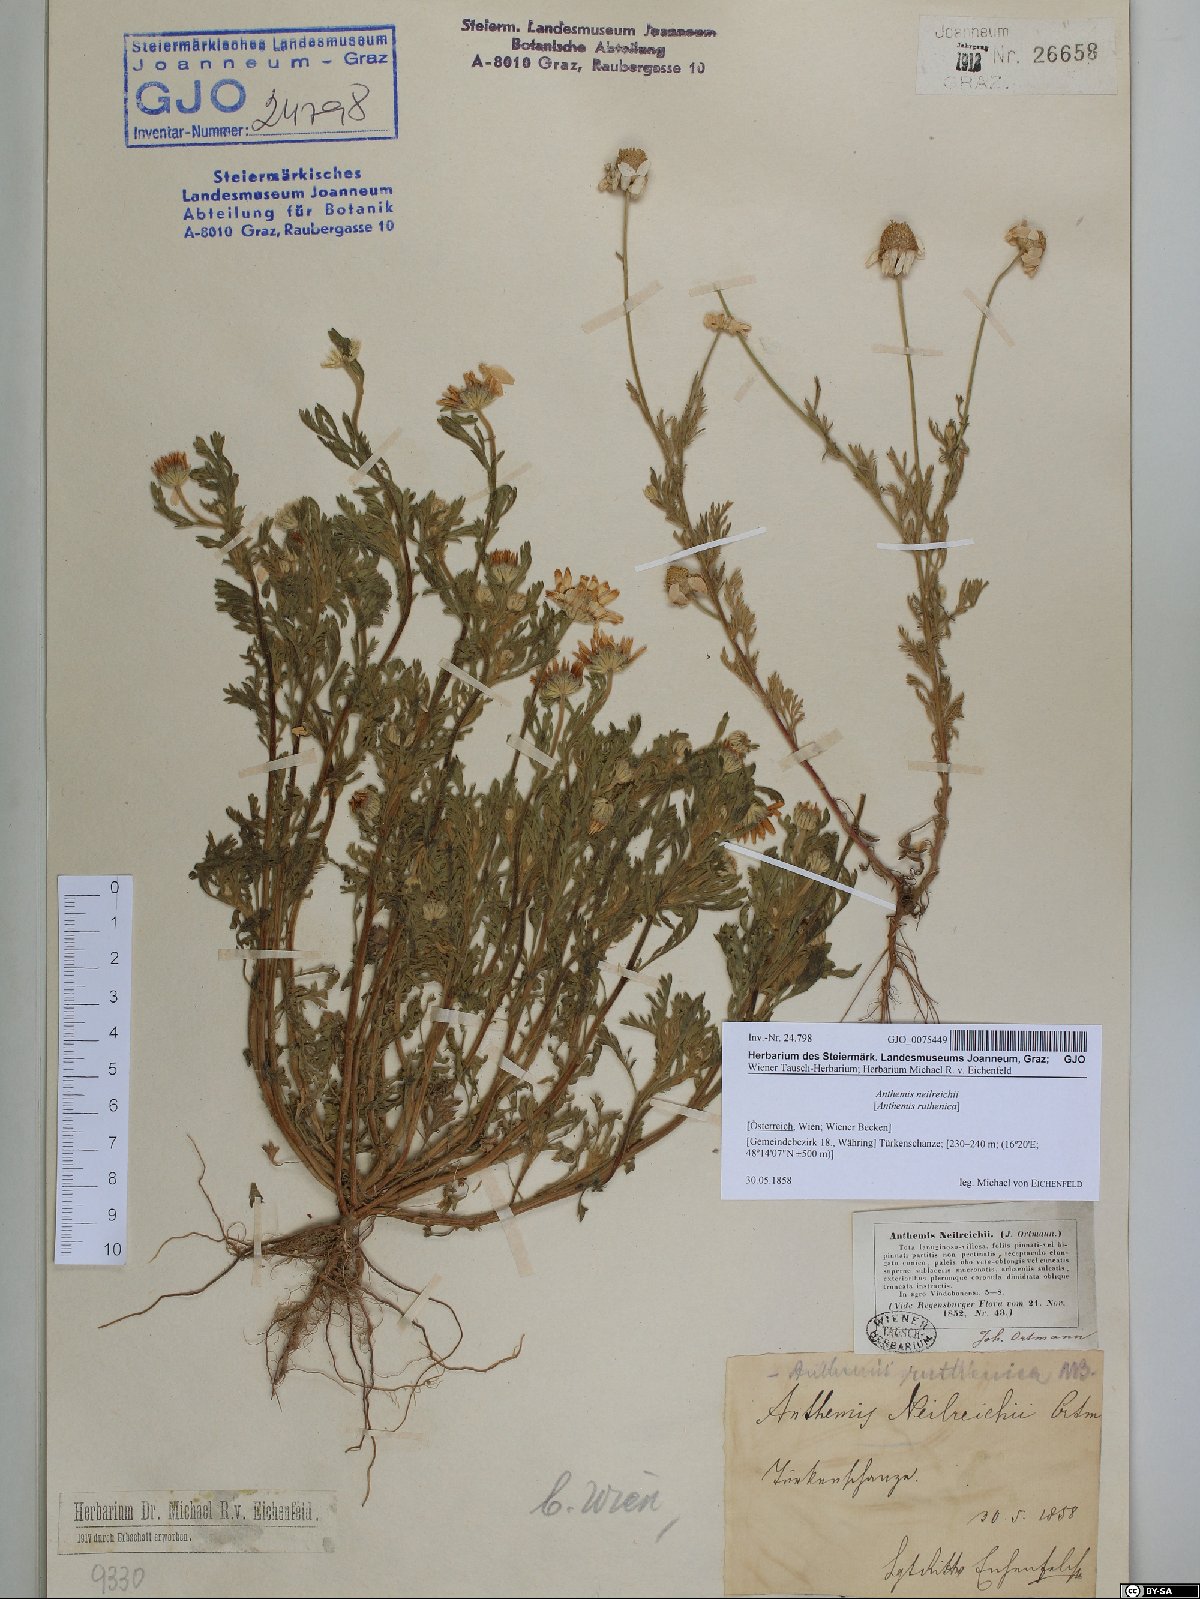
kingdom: Plantae
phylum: Tracheophyta
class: Magnoliopsida
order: Asterales
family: Asteraceae
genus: Anthemis
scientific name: Anthemis ruthenica
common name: Eastern chamomile
